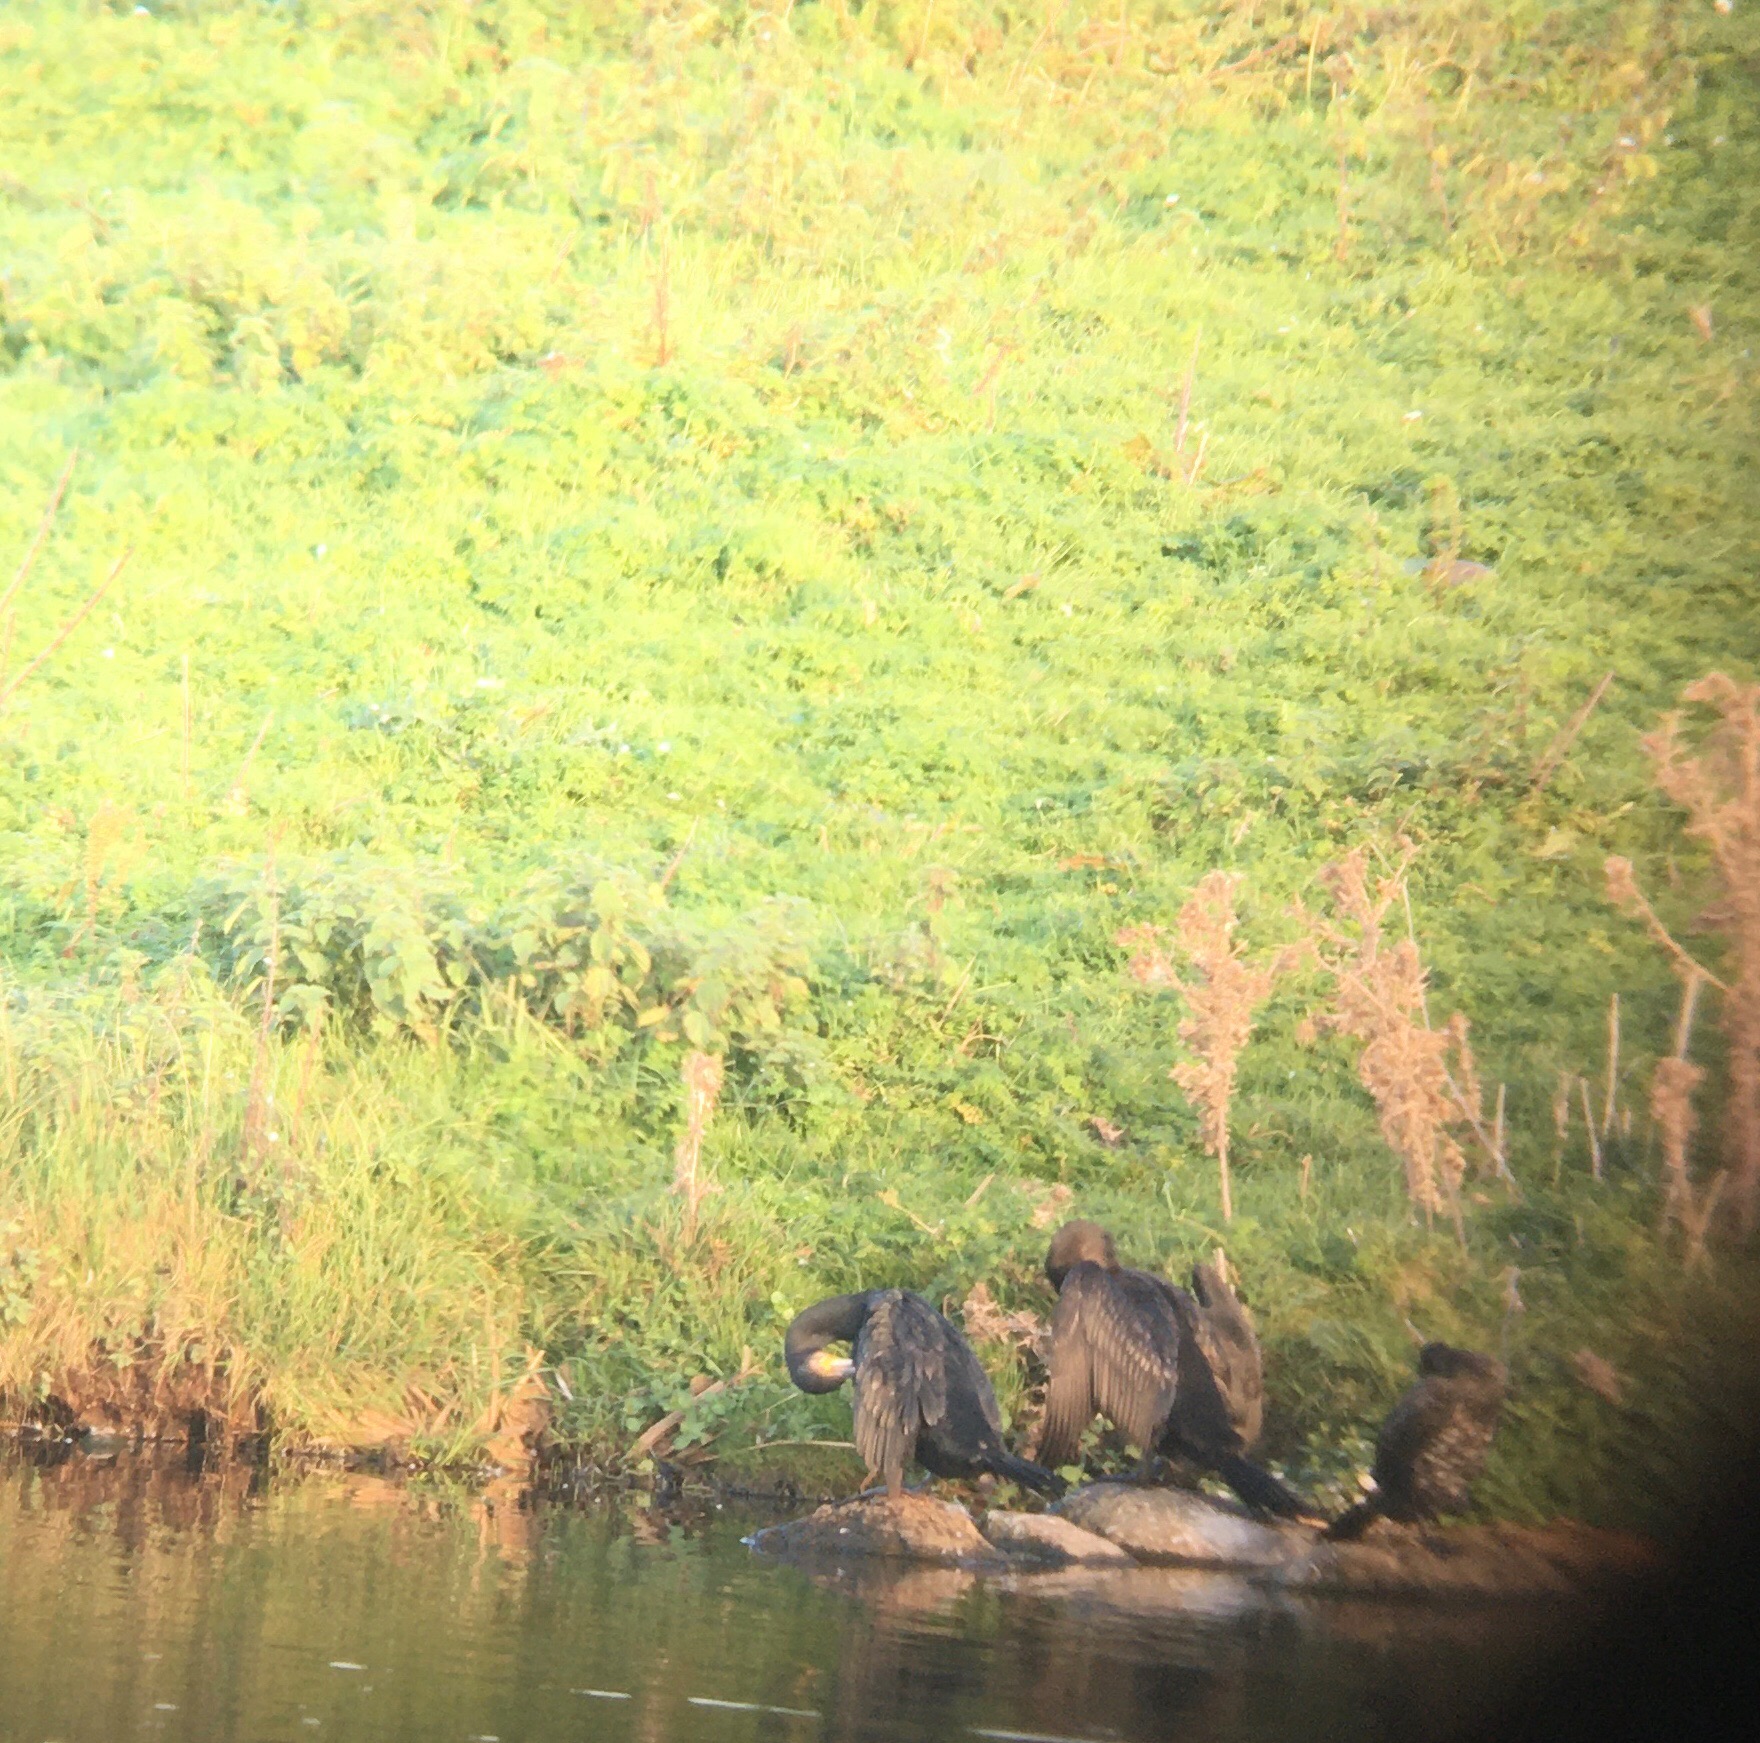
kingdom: Animalia
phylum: Chordata
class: Aves
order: Suliformes
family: Phalacrocoracidae
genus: Phalacrocorax
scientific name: Phalacrocorax carbo
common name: Skarv
